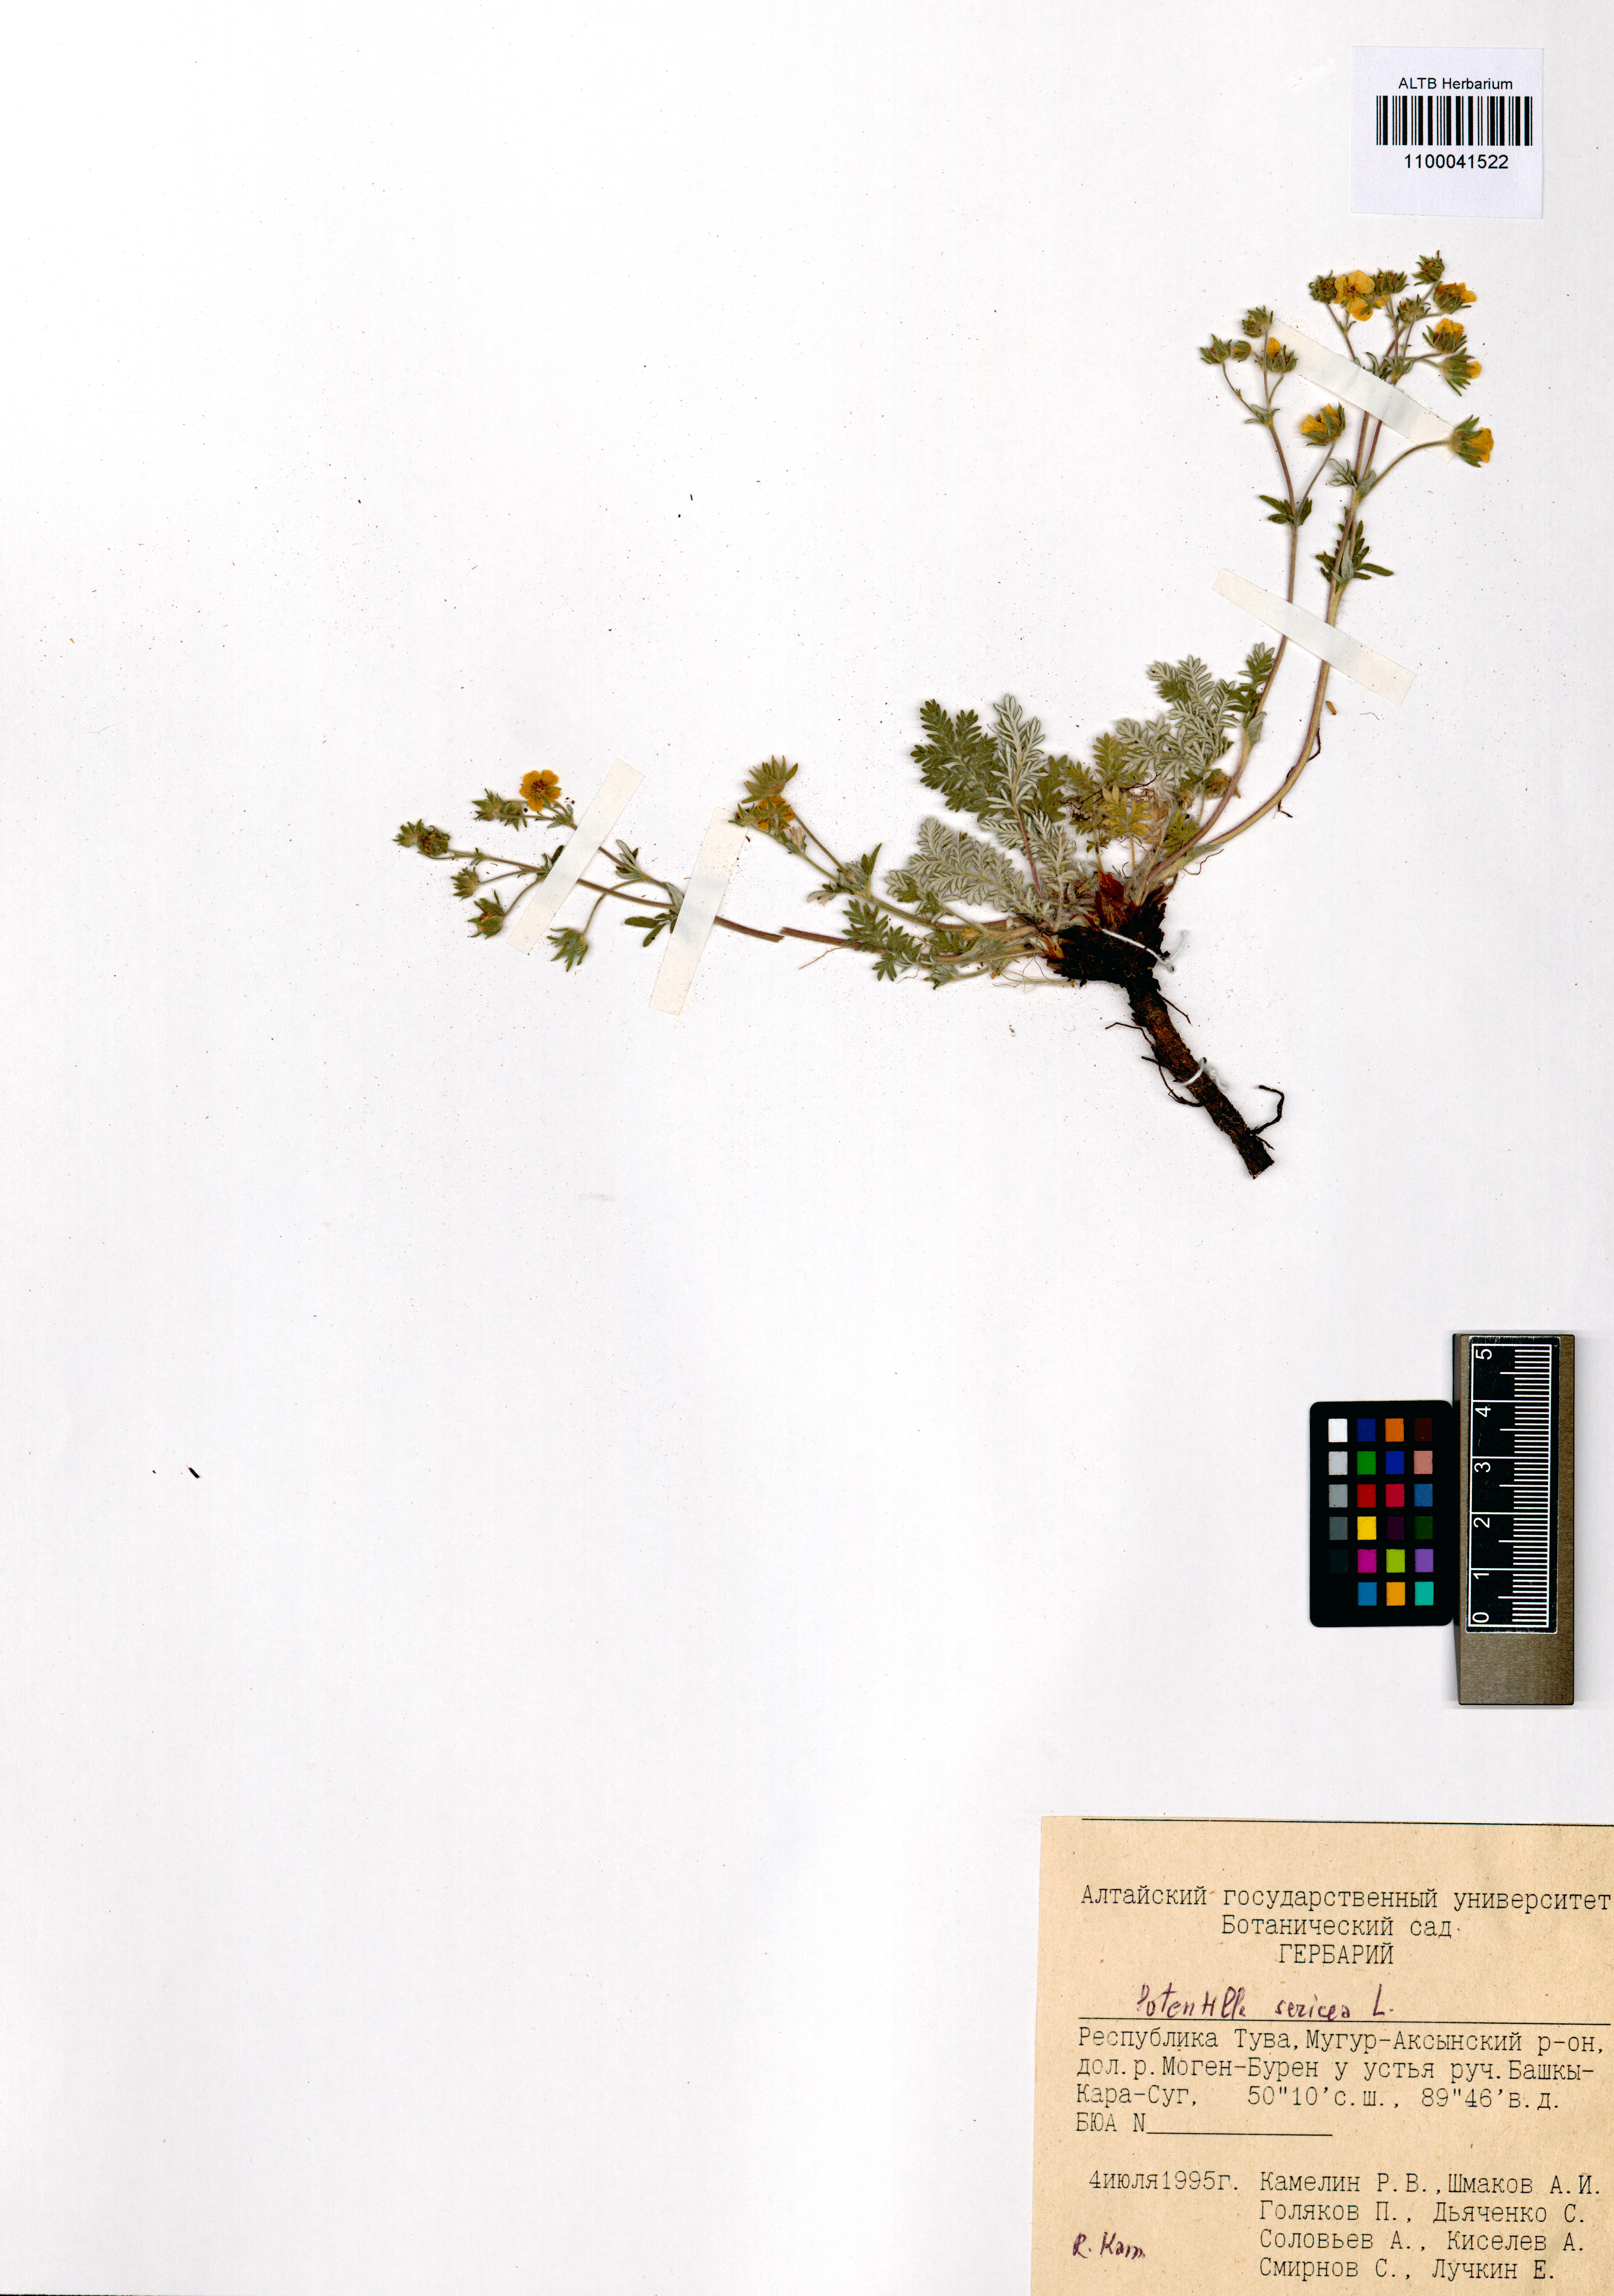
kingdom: Plantae
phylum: Tracheophyta
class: Magnoliopsida
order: Rosales
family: Rosaceae
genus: Potentilla
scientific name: Potentilla sericea
